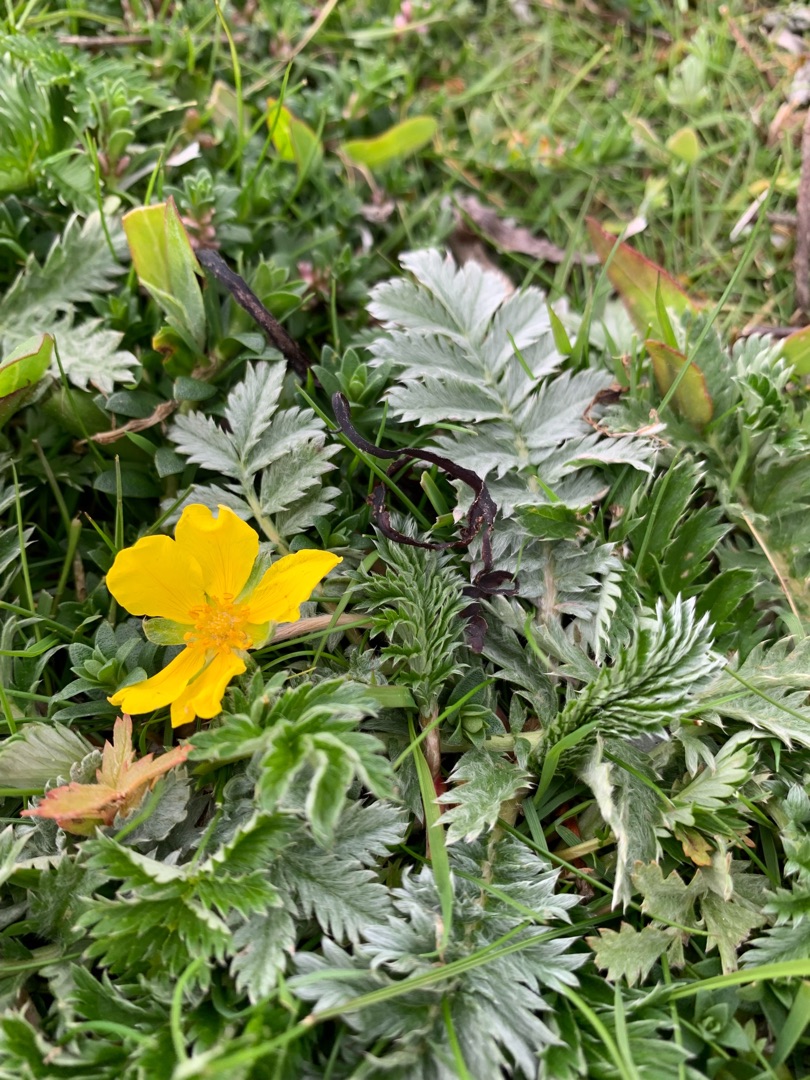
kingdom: Plantae
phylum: Tracheophyta
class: Magnoliopsida
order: Rosales
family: Rosaceae
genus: Argentina
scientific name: Argentina anserina
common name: Gåsepotentil
